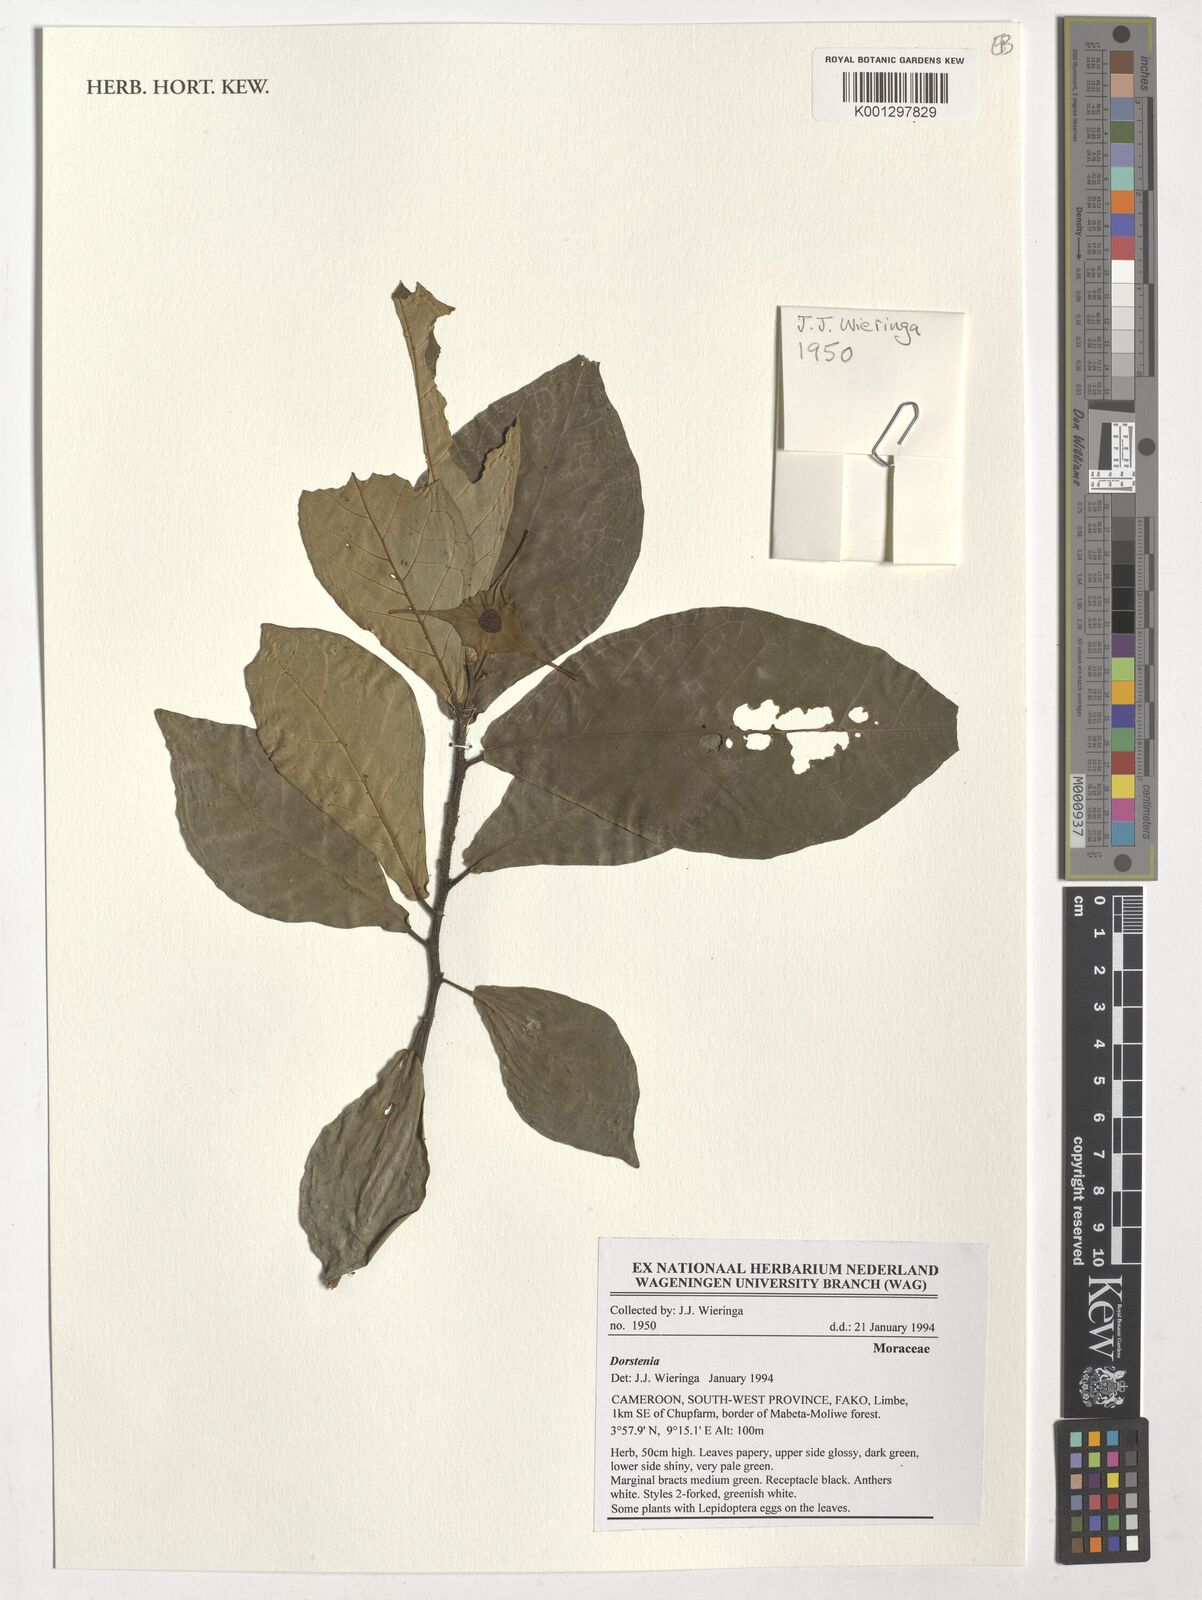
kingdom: Plantae
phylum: Tracheophyta
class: Magnoliopsida
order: Rosales
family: Moraceae
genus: Dorstenia
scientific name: Dorstenia
